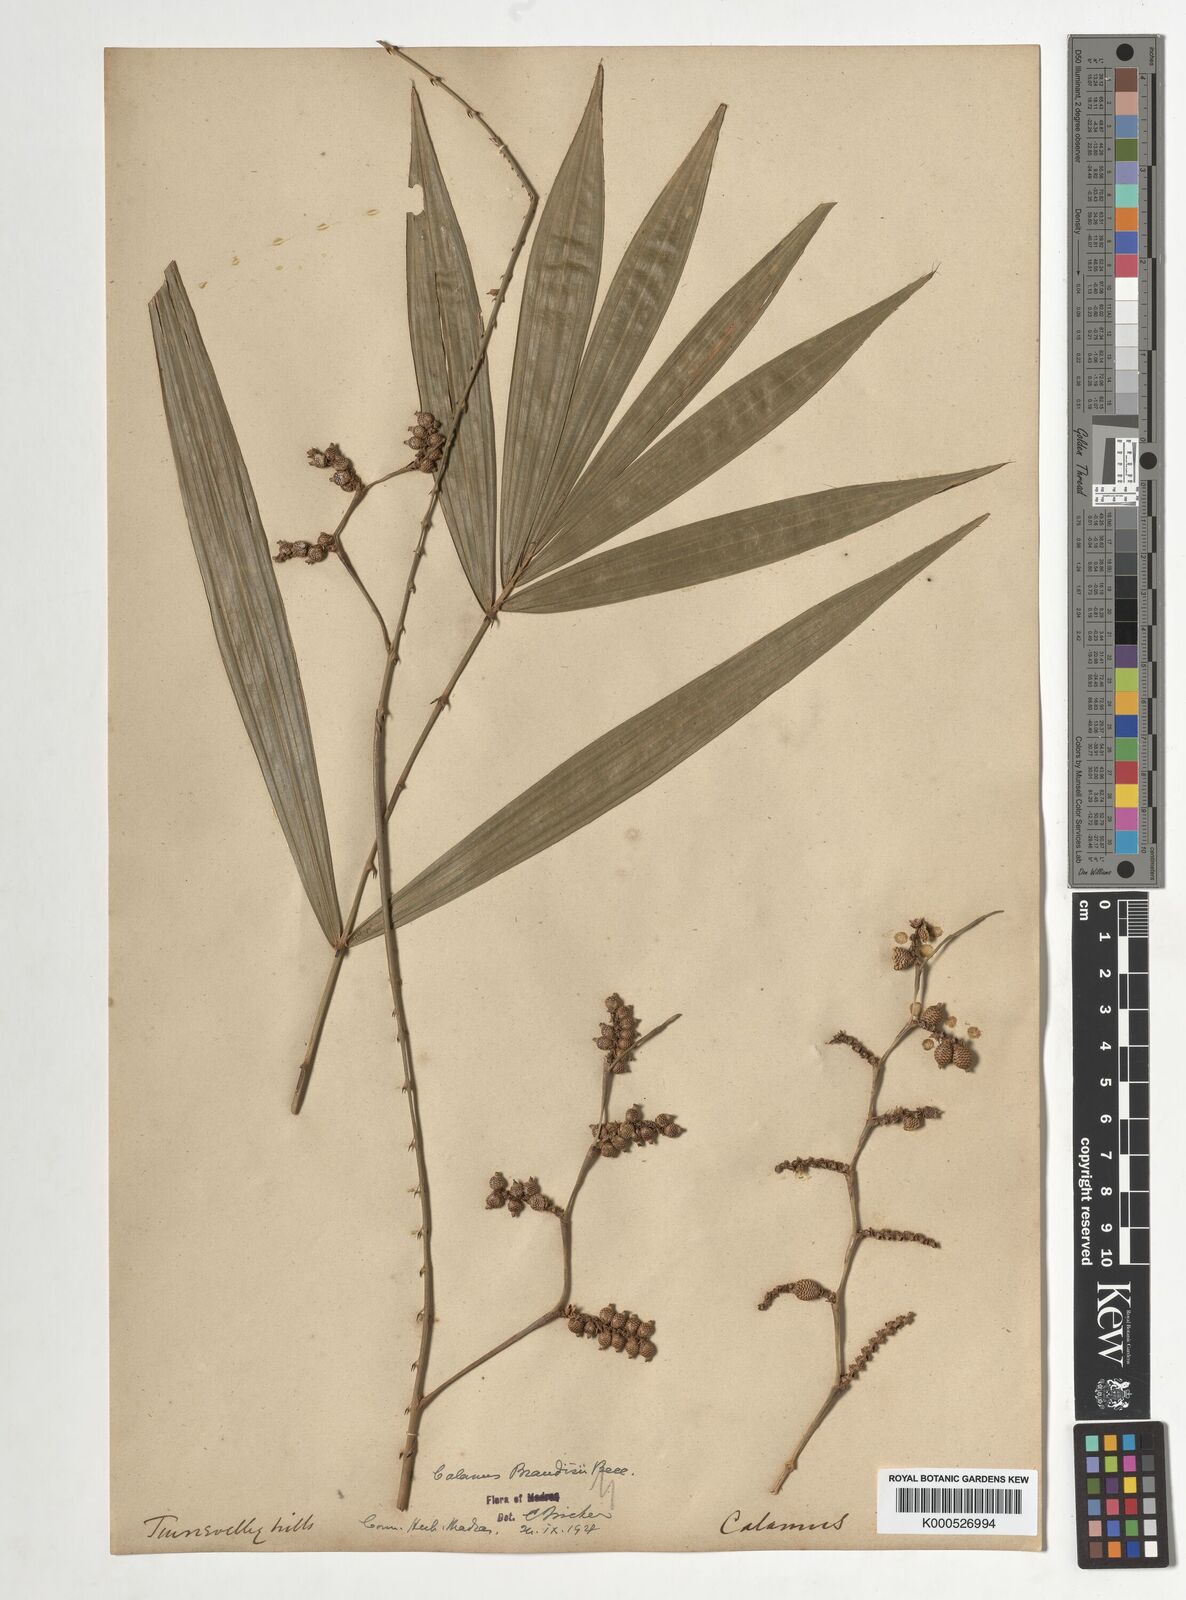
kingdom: Plantae
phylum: Tracheophyta
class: Liliopsida
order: Arecales
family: Arecaceae
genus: Calamus
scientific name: Calamus brandisii
